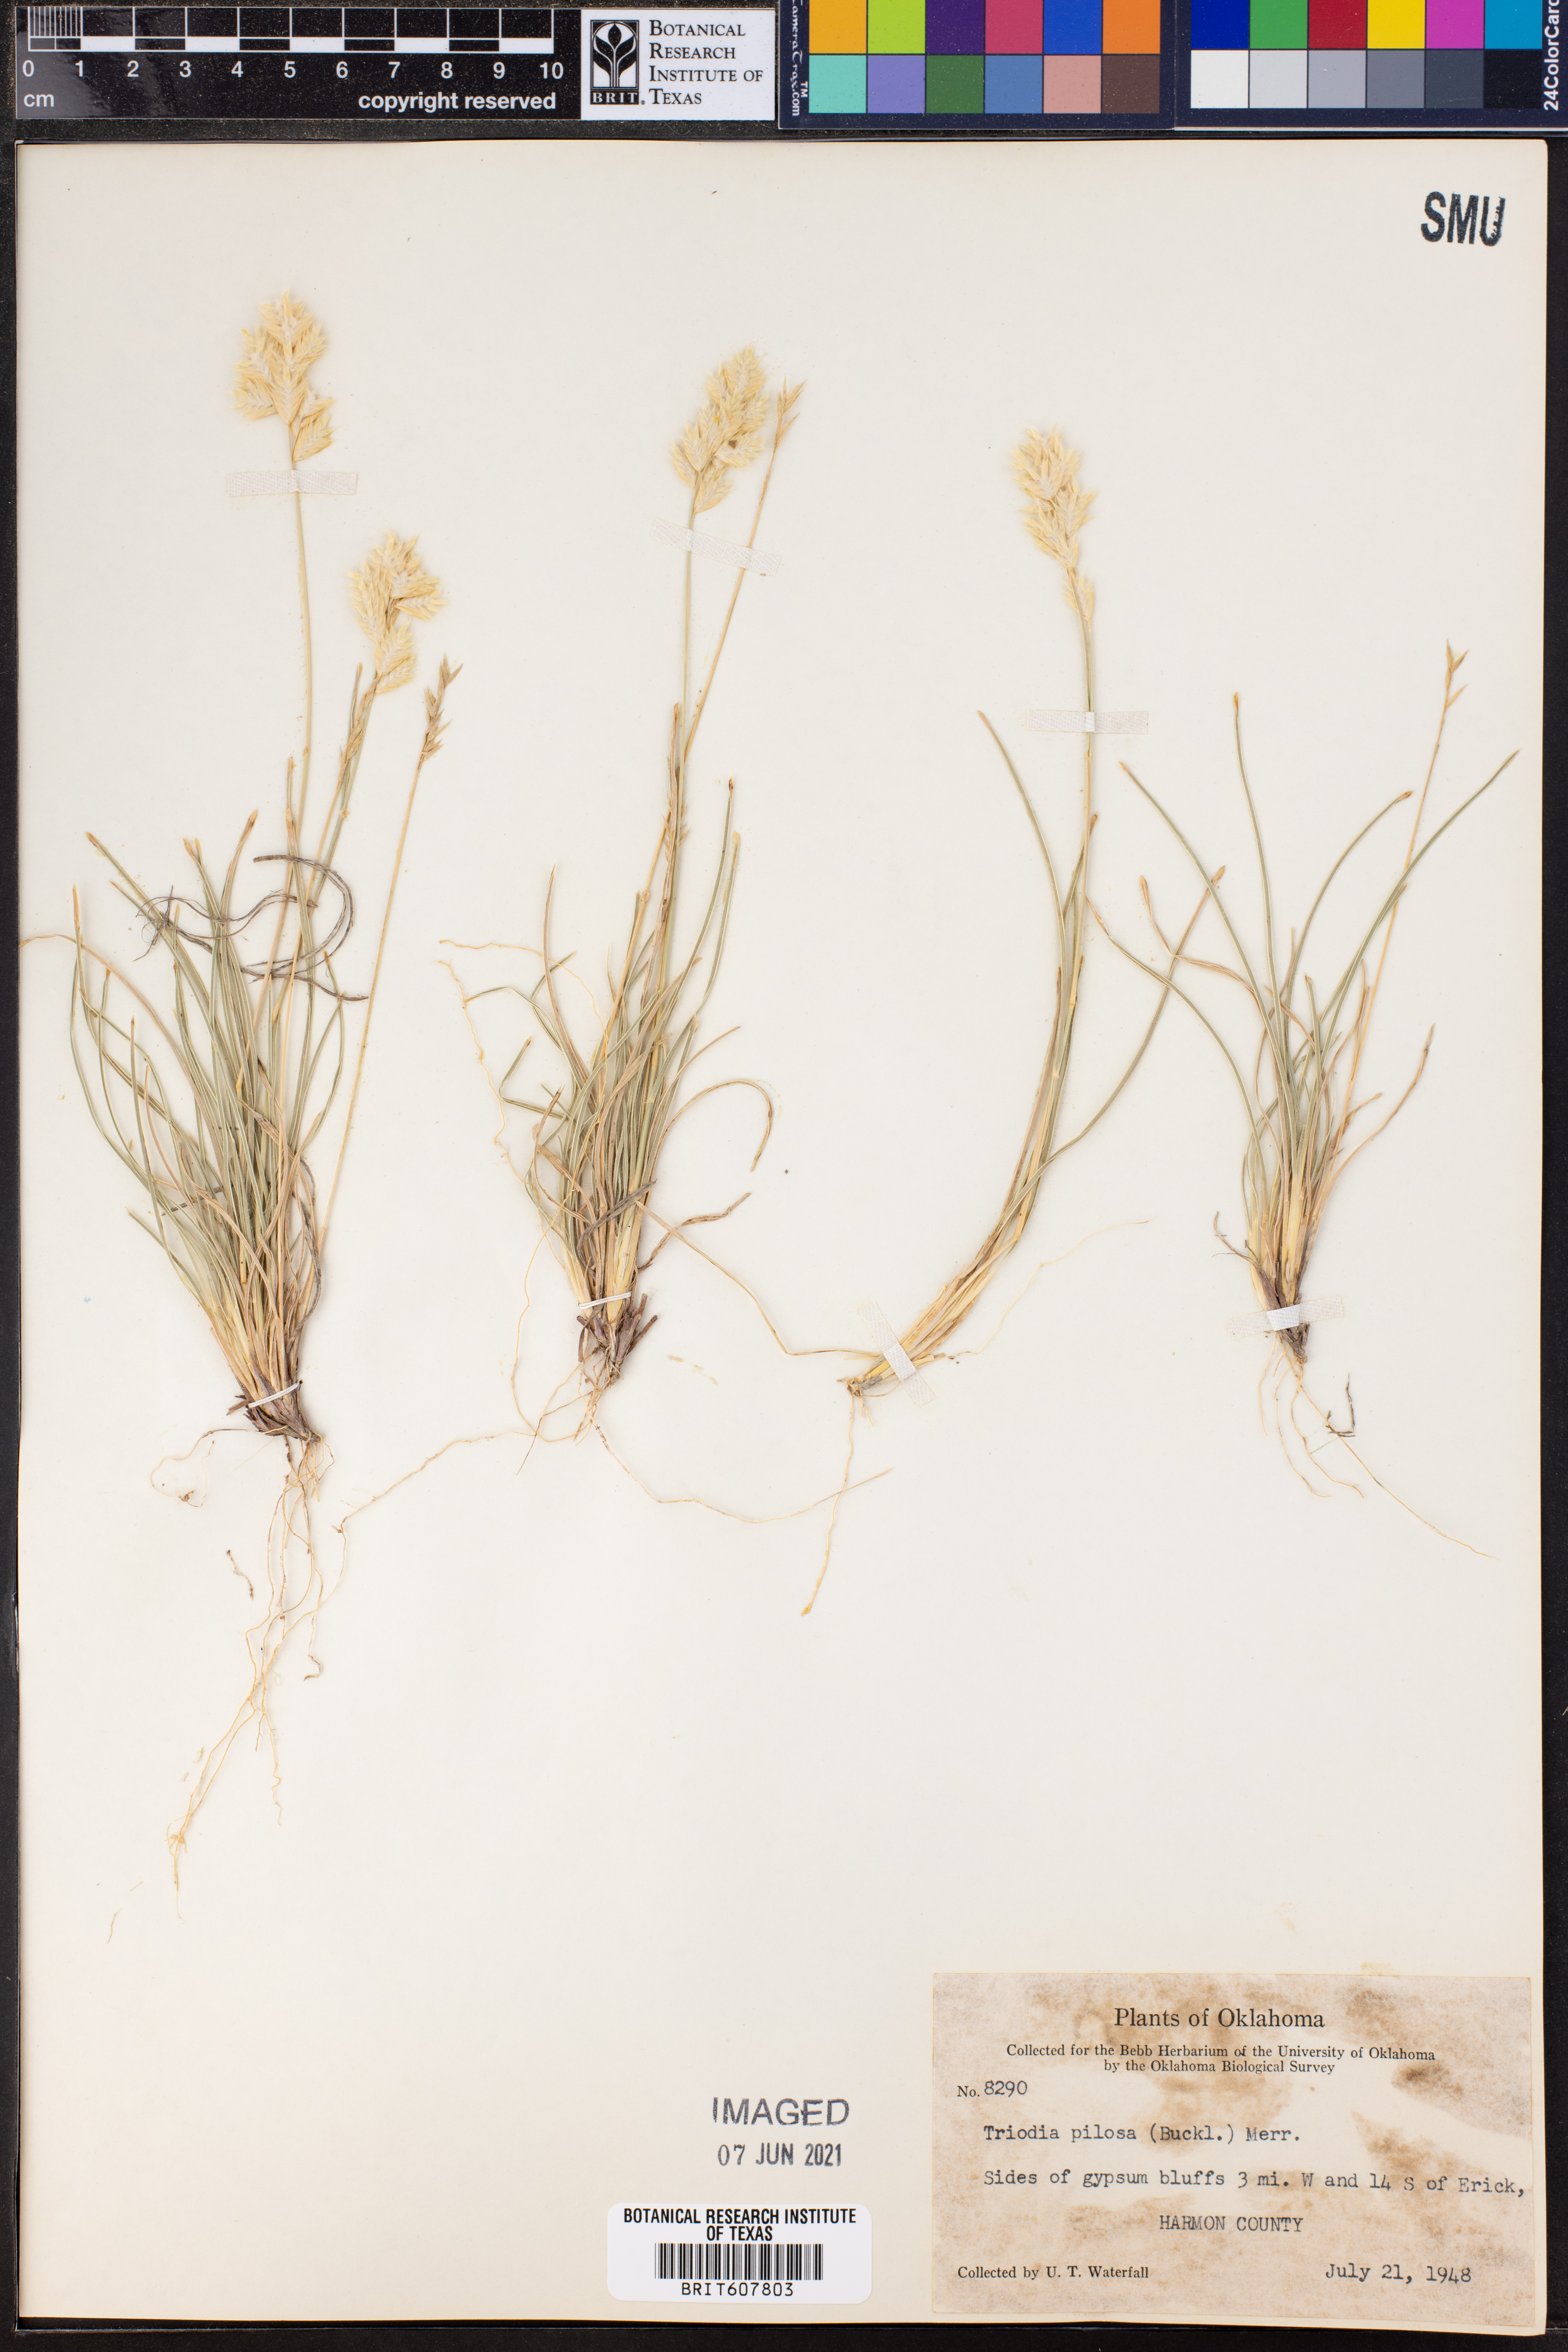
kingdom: Plantae
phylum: Tracheophyta
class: Liliopsida
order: Poales
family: Poaceae
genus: Triodia
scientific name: Triodia pilosa
